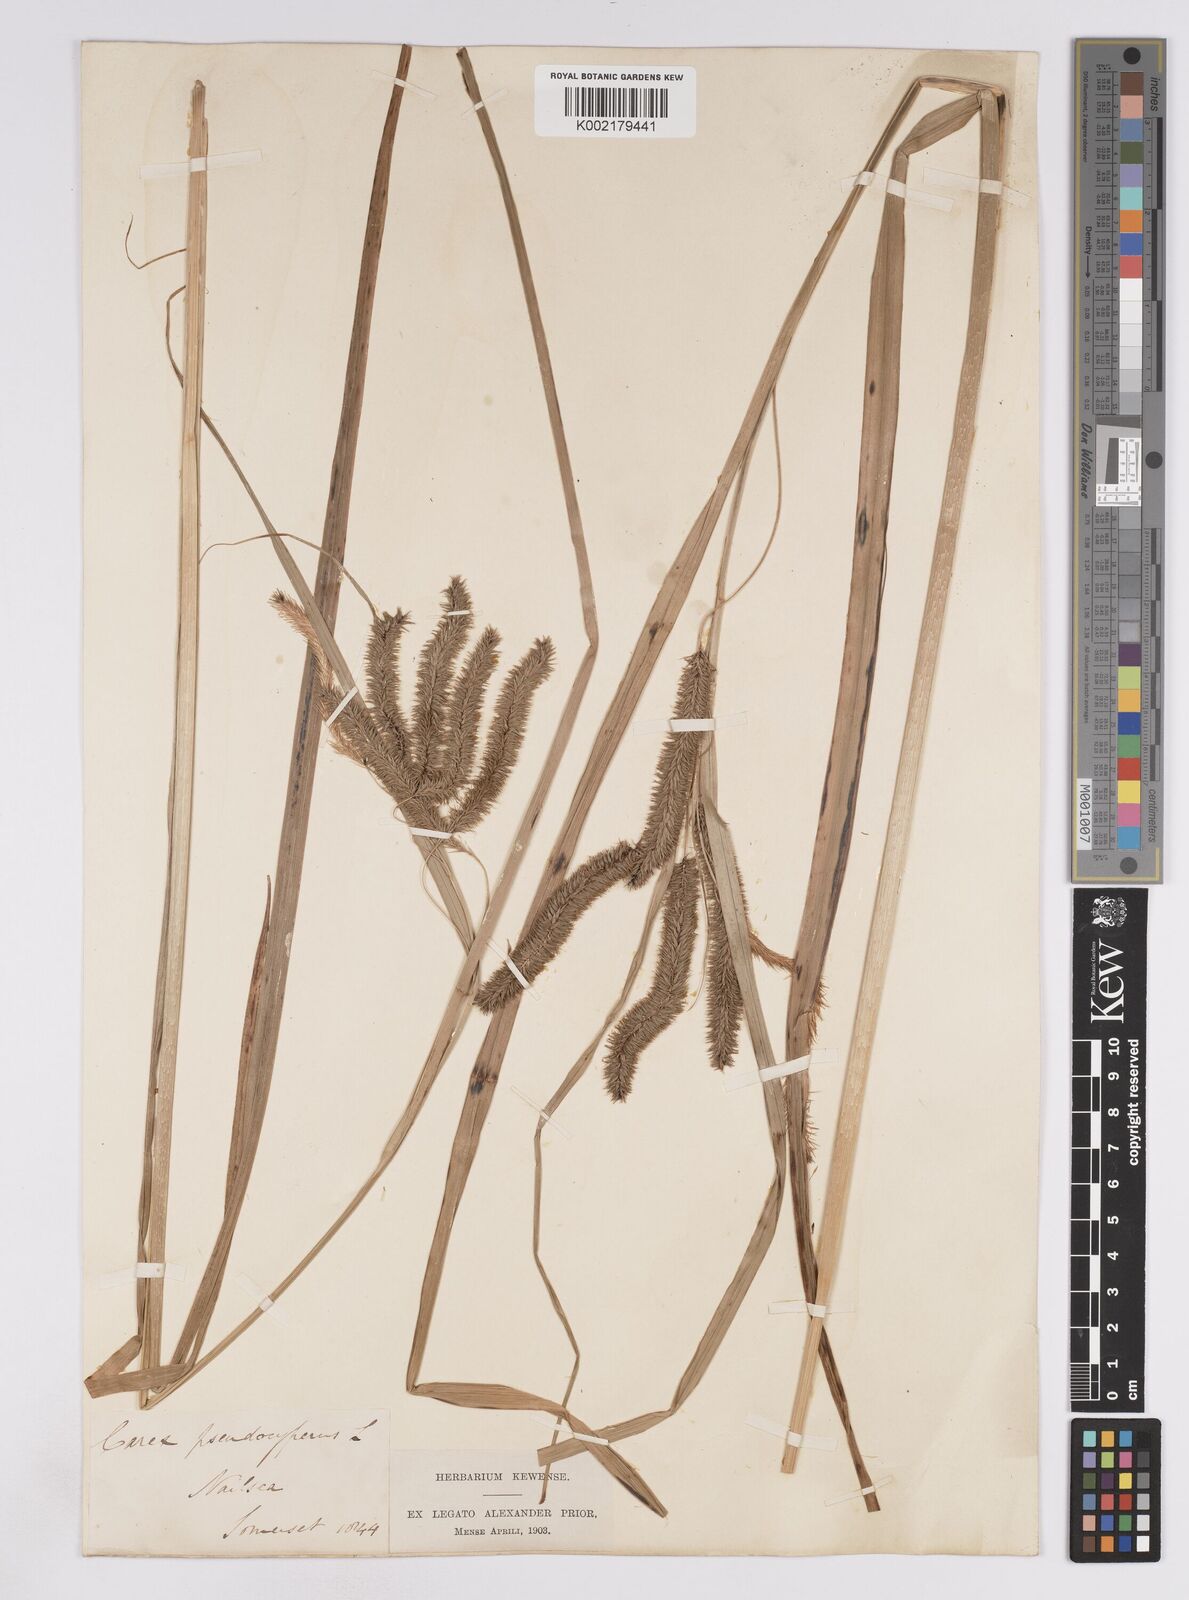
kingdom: Plantae
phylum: Tracheophyta
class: Liliopsida
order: Poales
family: Cyperaceae
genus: Carex
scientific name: Carex pseudocyperus
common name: Cyperus sedge
